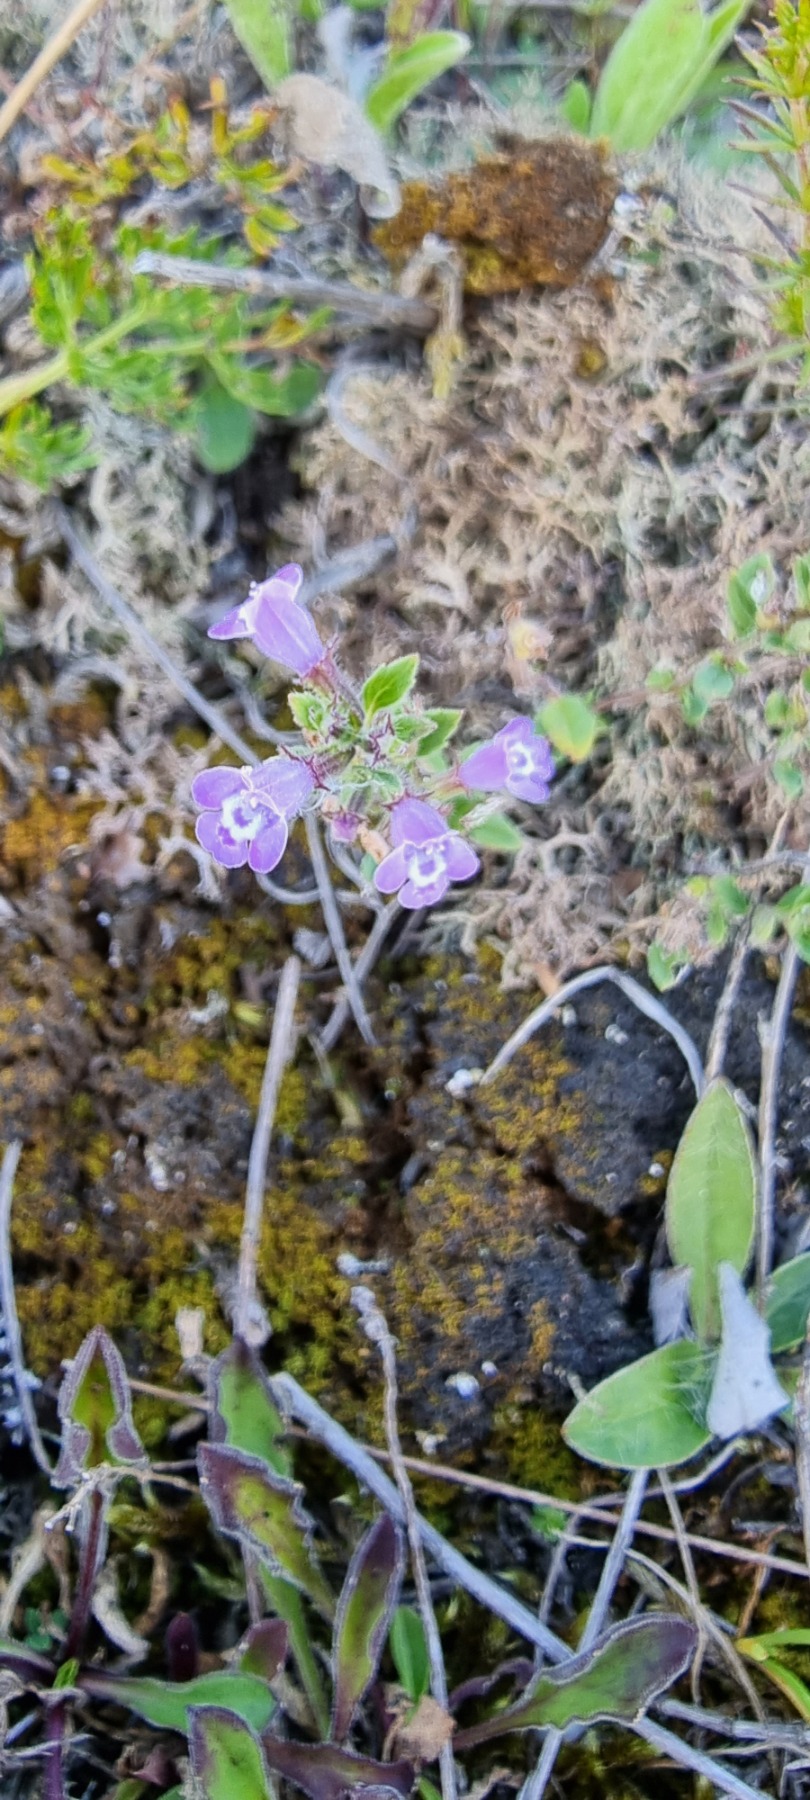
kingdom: Plantae
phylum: Tracheophyta
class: Magnoliopsida
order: Lamiales
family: Lamiaceae
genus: Clinopodium
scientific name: Clinopodium acinos
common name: Voldtimian
